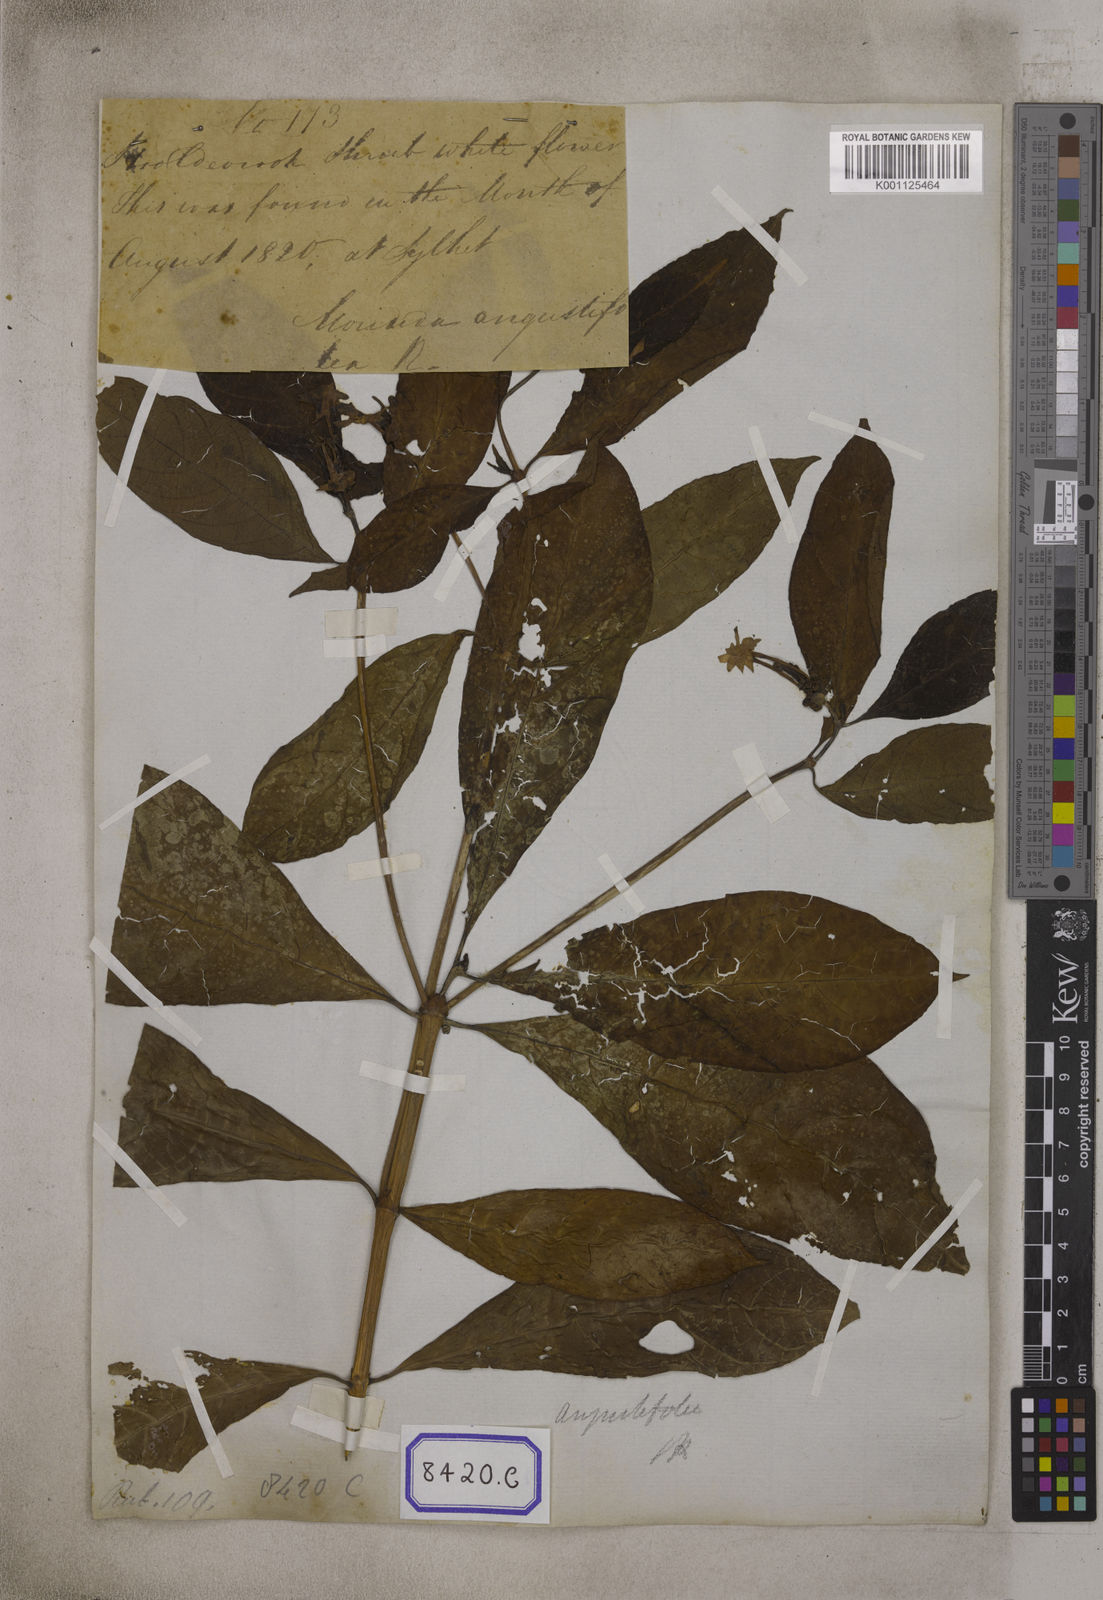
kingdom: Plantae
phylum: Tracheophyta
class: Magnoliopsida
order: Gentianales
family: Rubiaceae
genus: Morinda
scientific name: Morinda angustifolia
